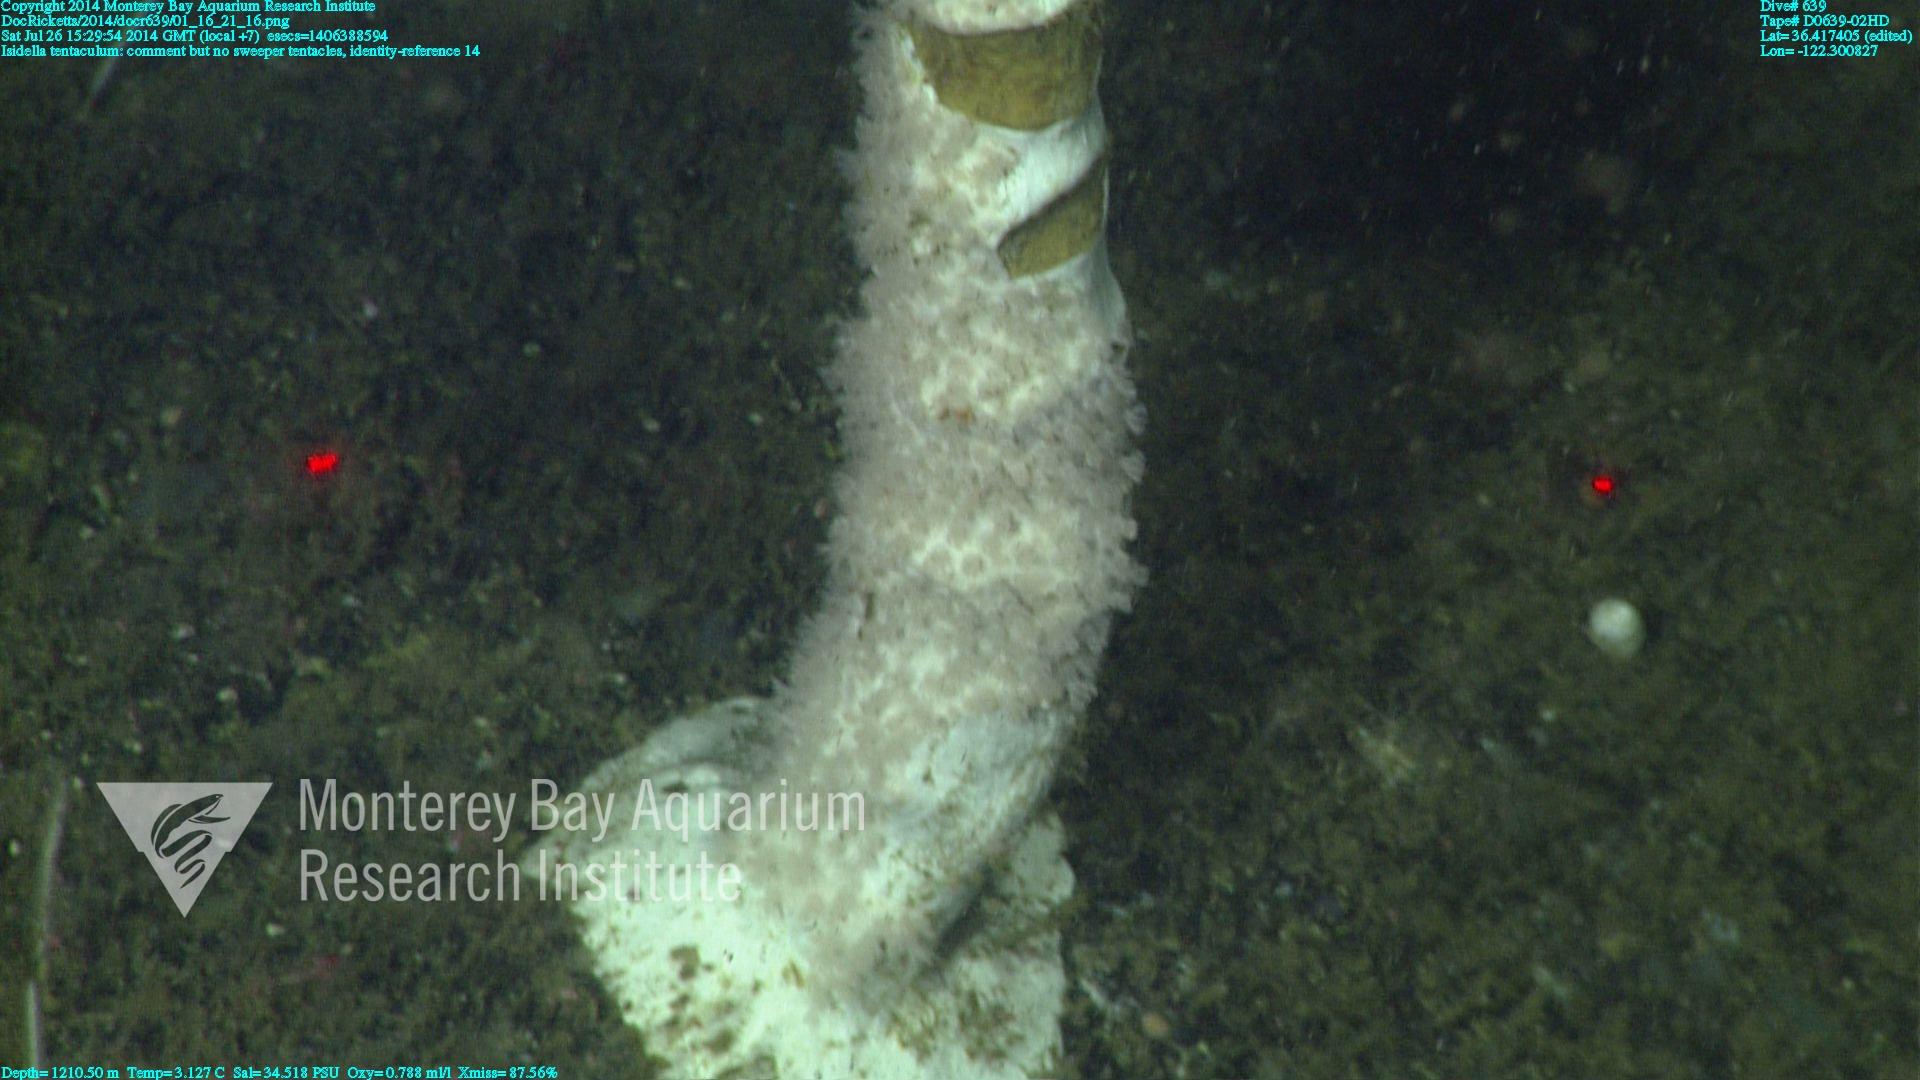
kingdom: Animalia
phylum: Cnidaria
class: Anthozoa
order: Scleralcyonacea
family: Keratoisididae
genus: Isidella
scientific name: Isidella tentaculum
